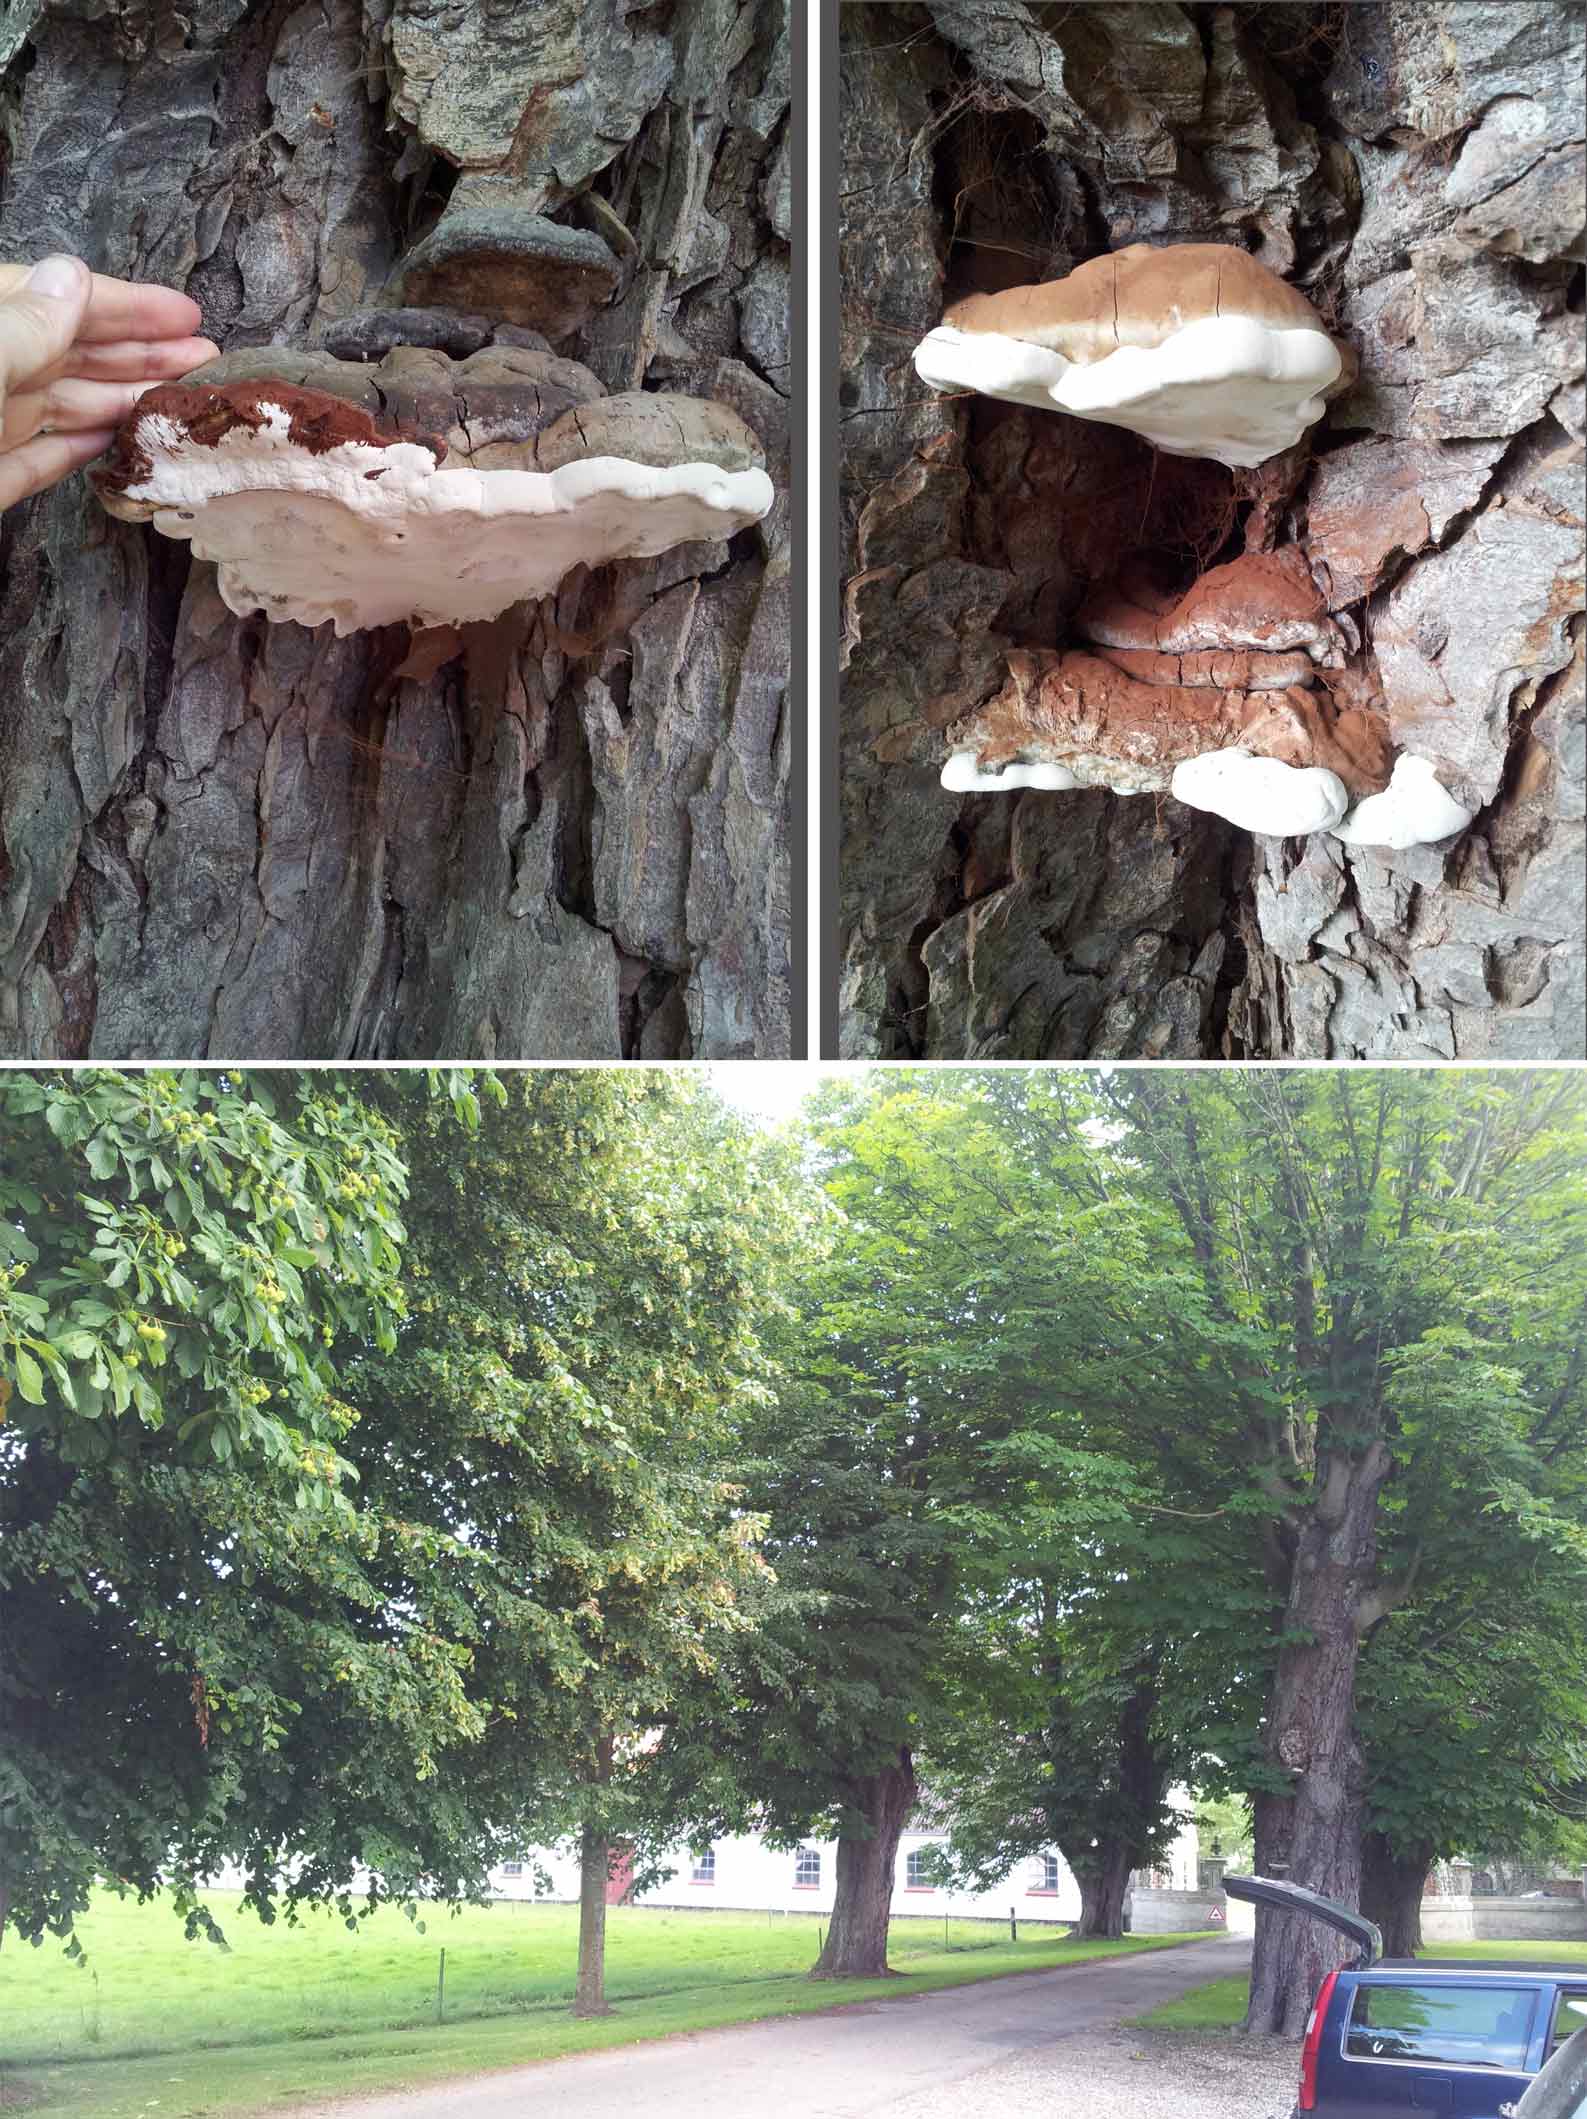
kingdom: Fungi
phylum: Basidiomycota
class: Agaricomycetes
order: Polyporales
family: Polyporaceae
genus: Ganoderma
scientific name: Ganoderma adspersum
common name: grov lakporesvamp
